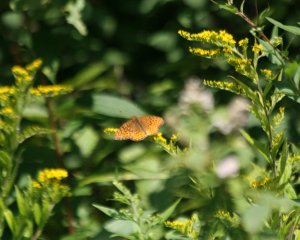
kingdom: Animalia
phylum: Arthropoda
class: Insecta
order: Lepidoptera
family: Nymphalidae
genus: Speyeria
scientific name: Speyeria cybele
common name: Great Spangled Fritillary
